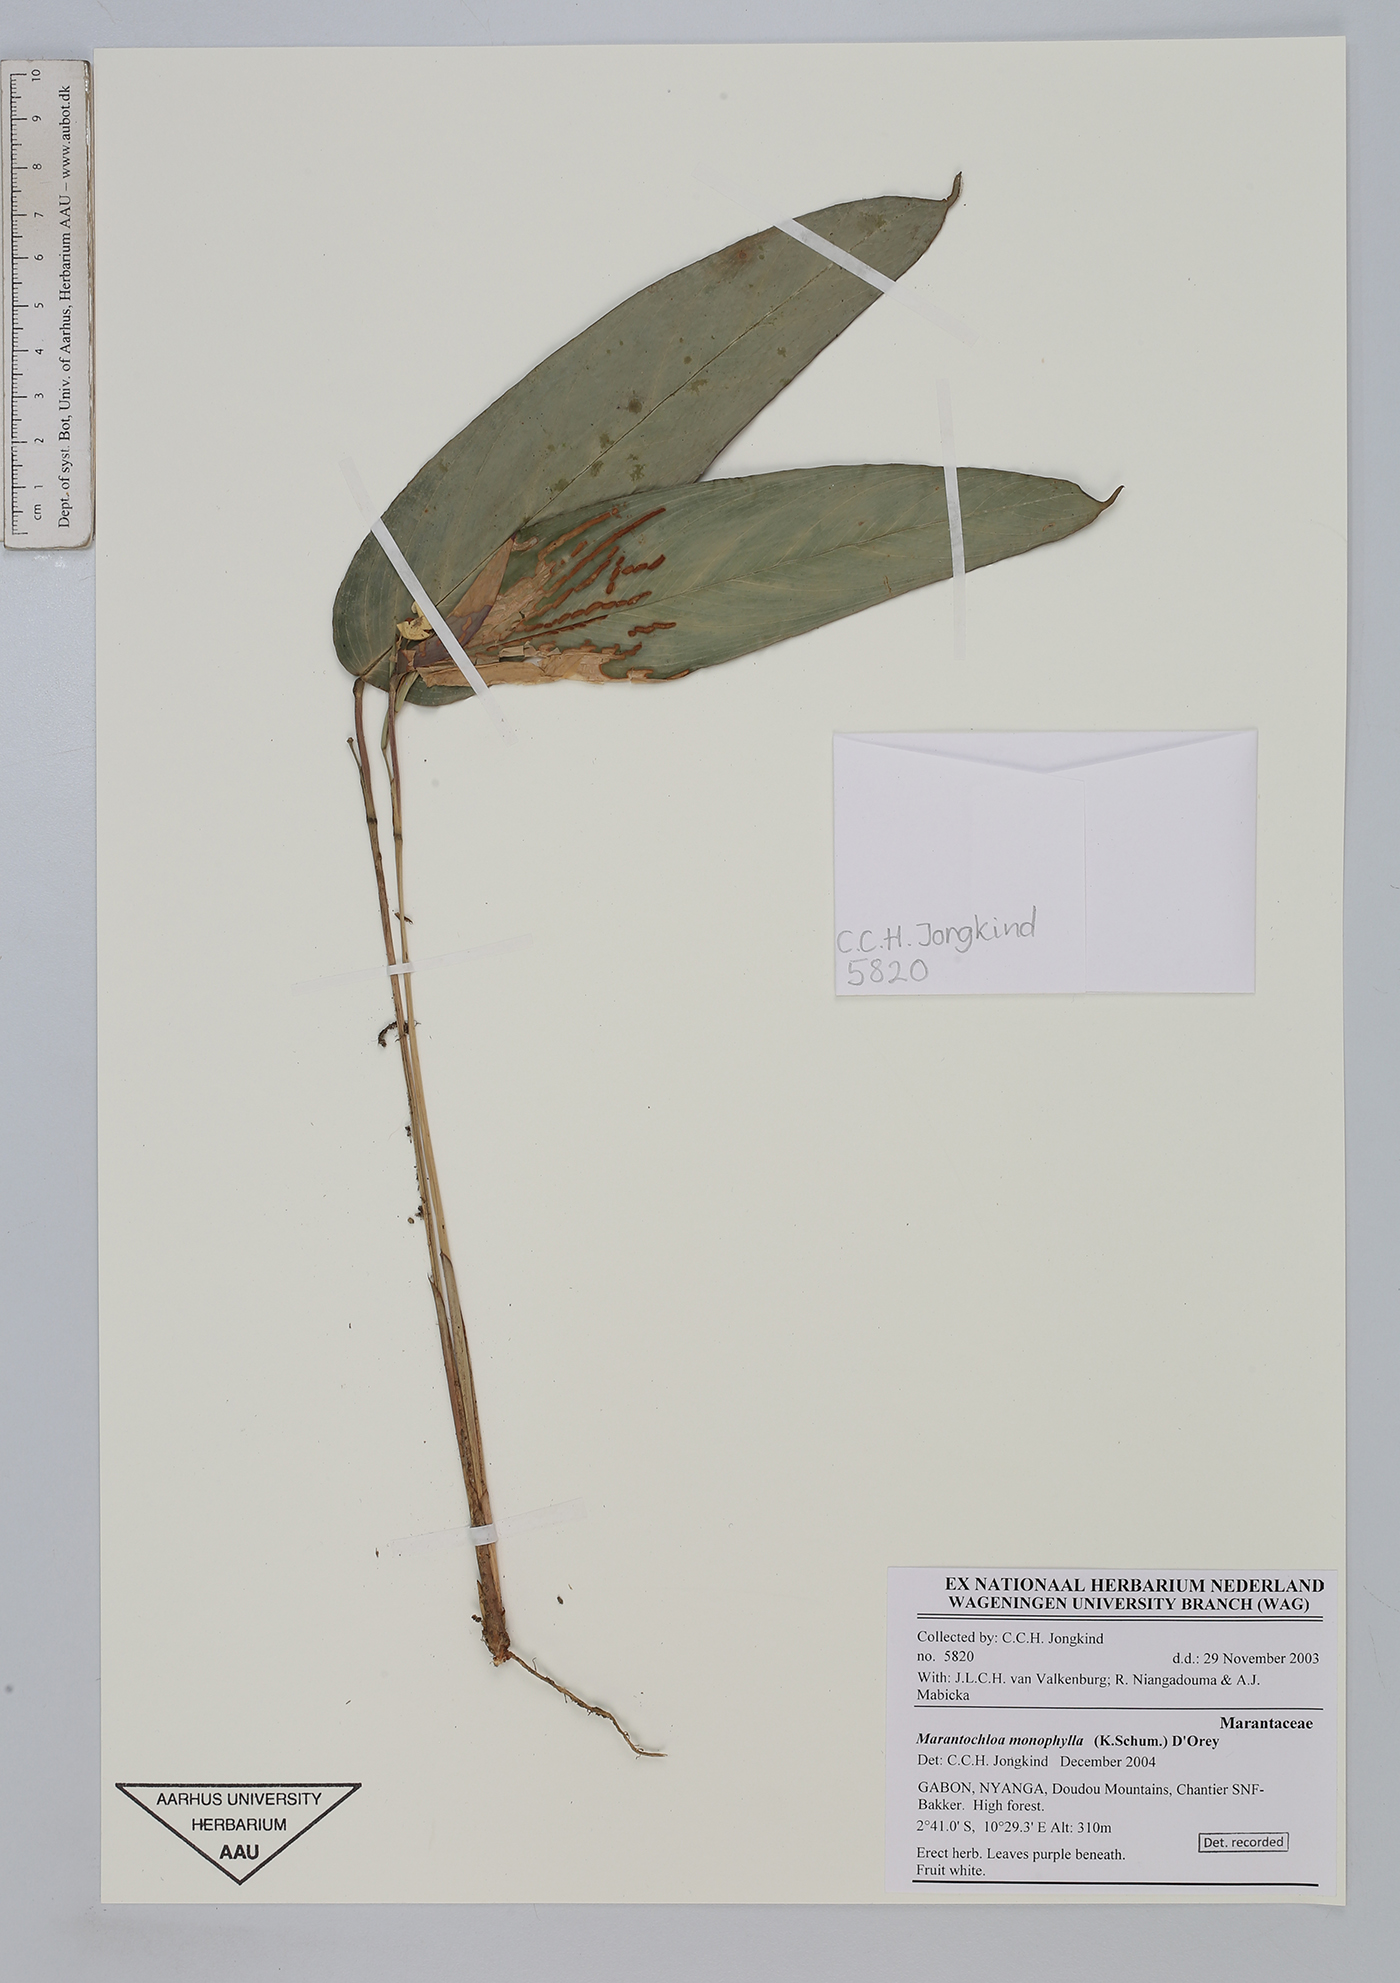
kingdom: Plantae
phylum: Tracheophyta
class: Liliopsida
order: Zingiberales
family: Marantaceae
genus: Marantochloa
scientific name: Marantochloa monophylla
